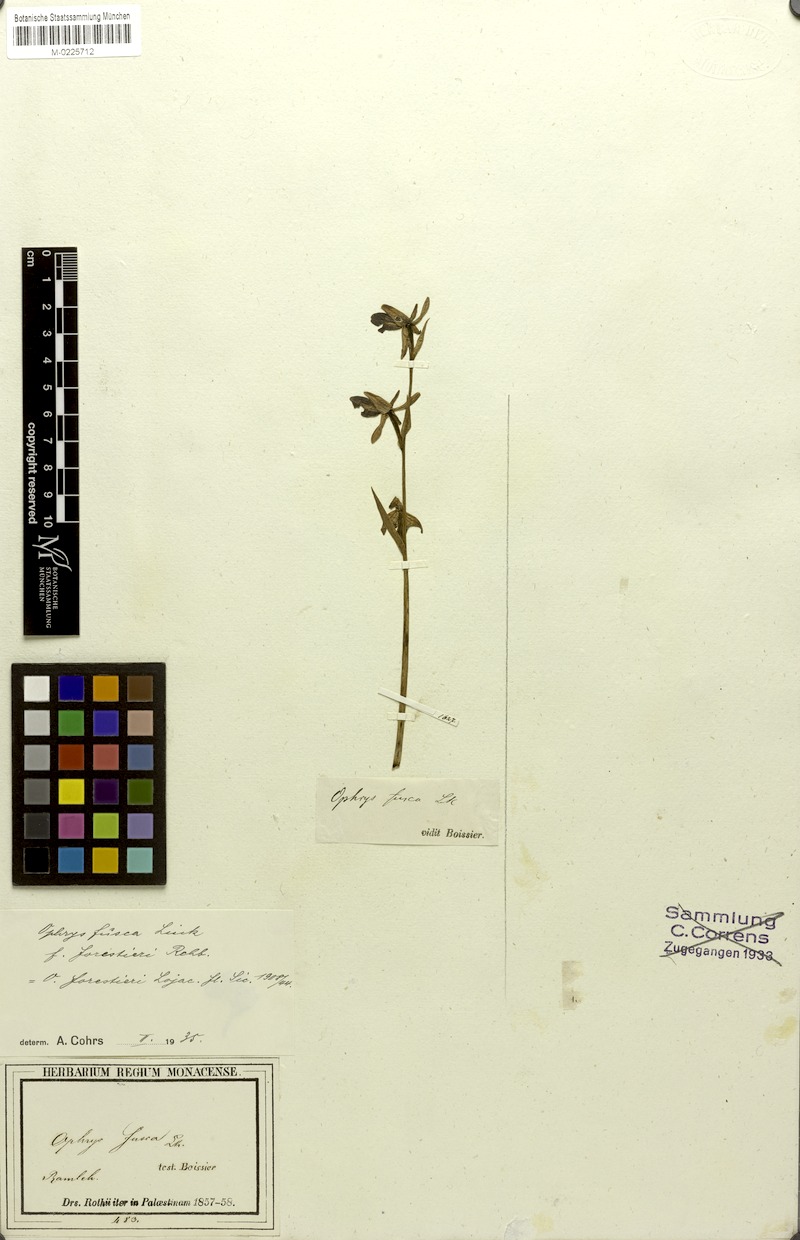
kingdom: Plantae
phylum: Tracheophyta
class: Liliopsida
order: Asparagales
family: Orchidaceae
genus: Ophrys
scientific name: Ophrys fusca
